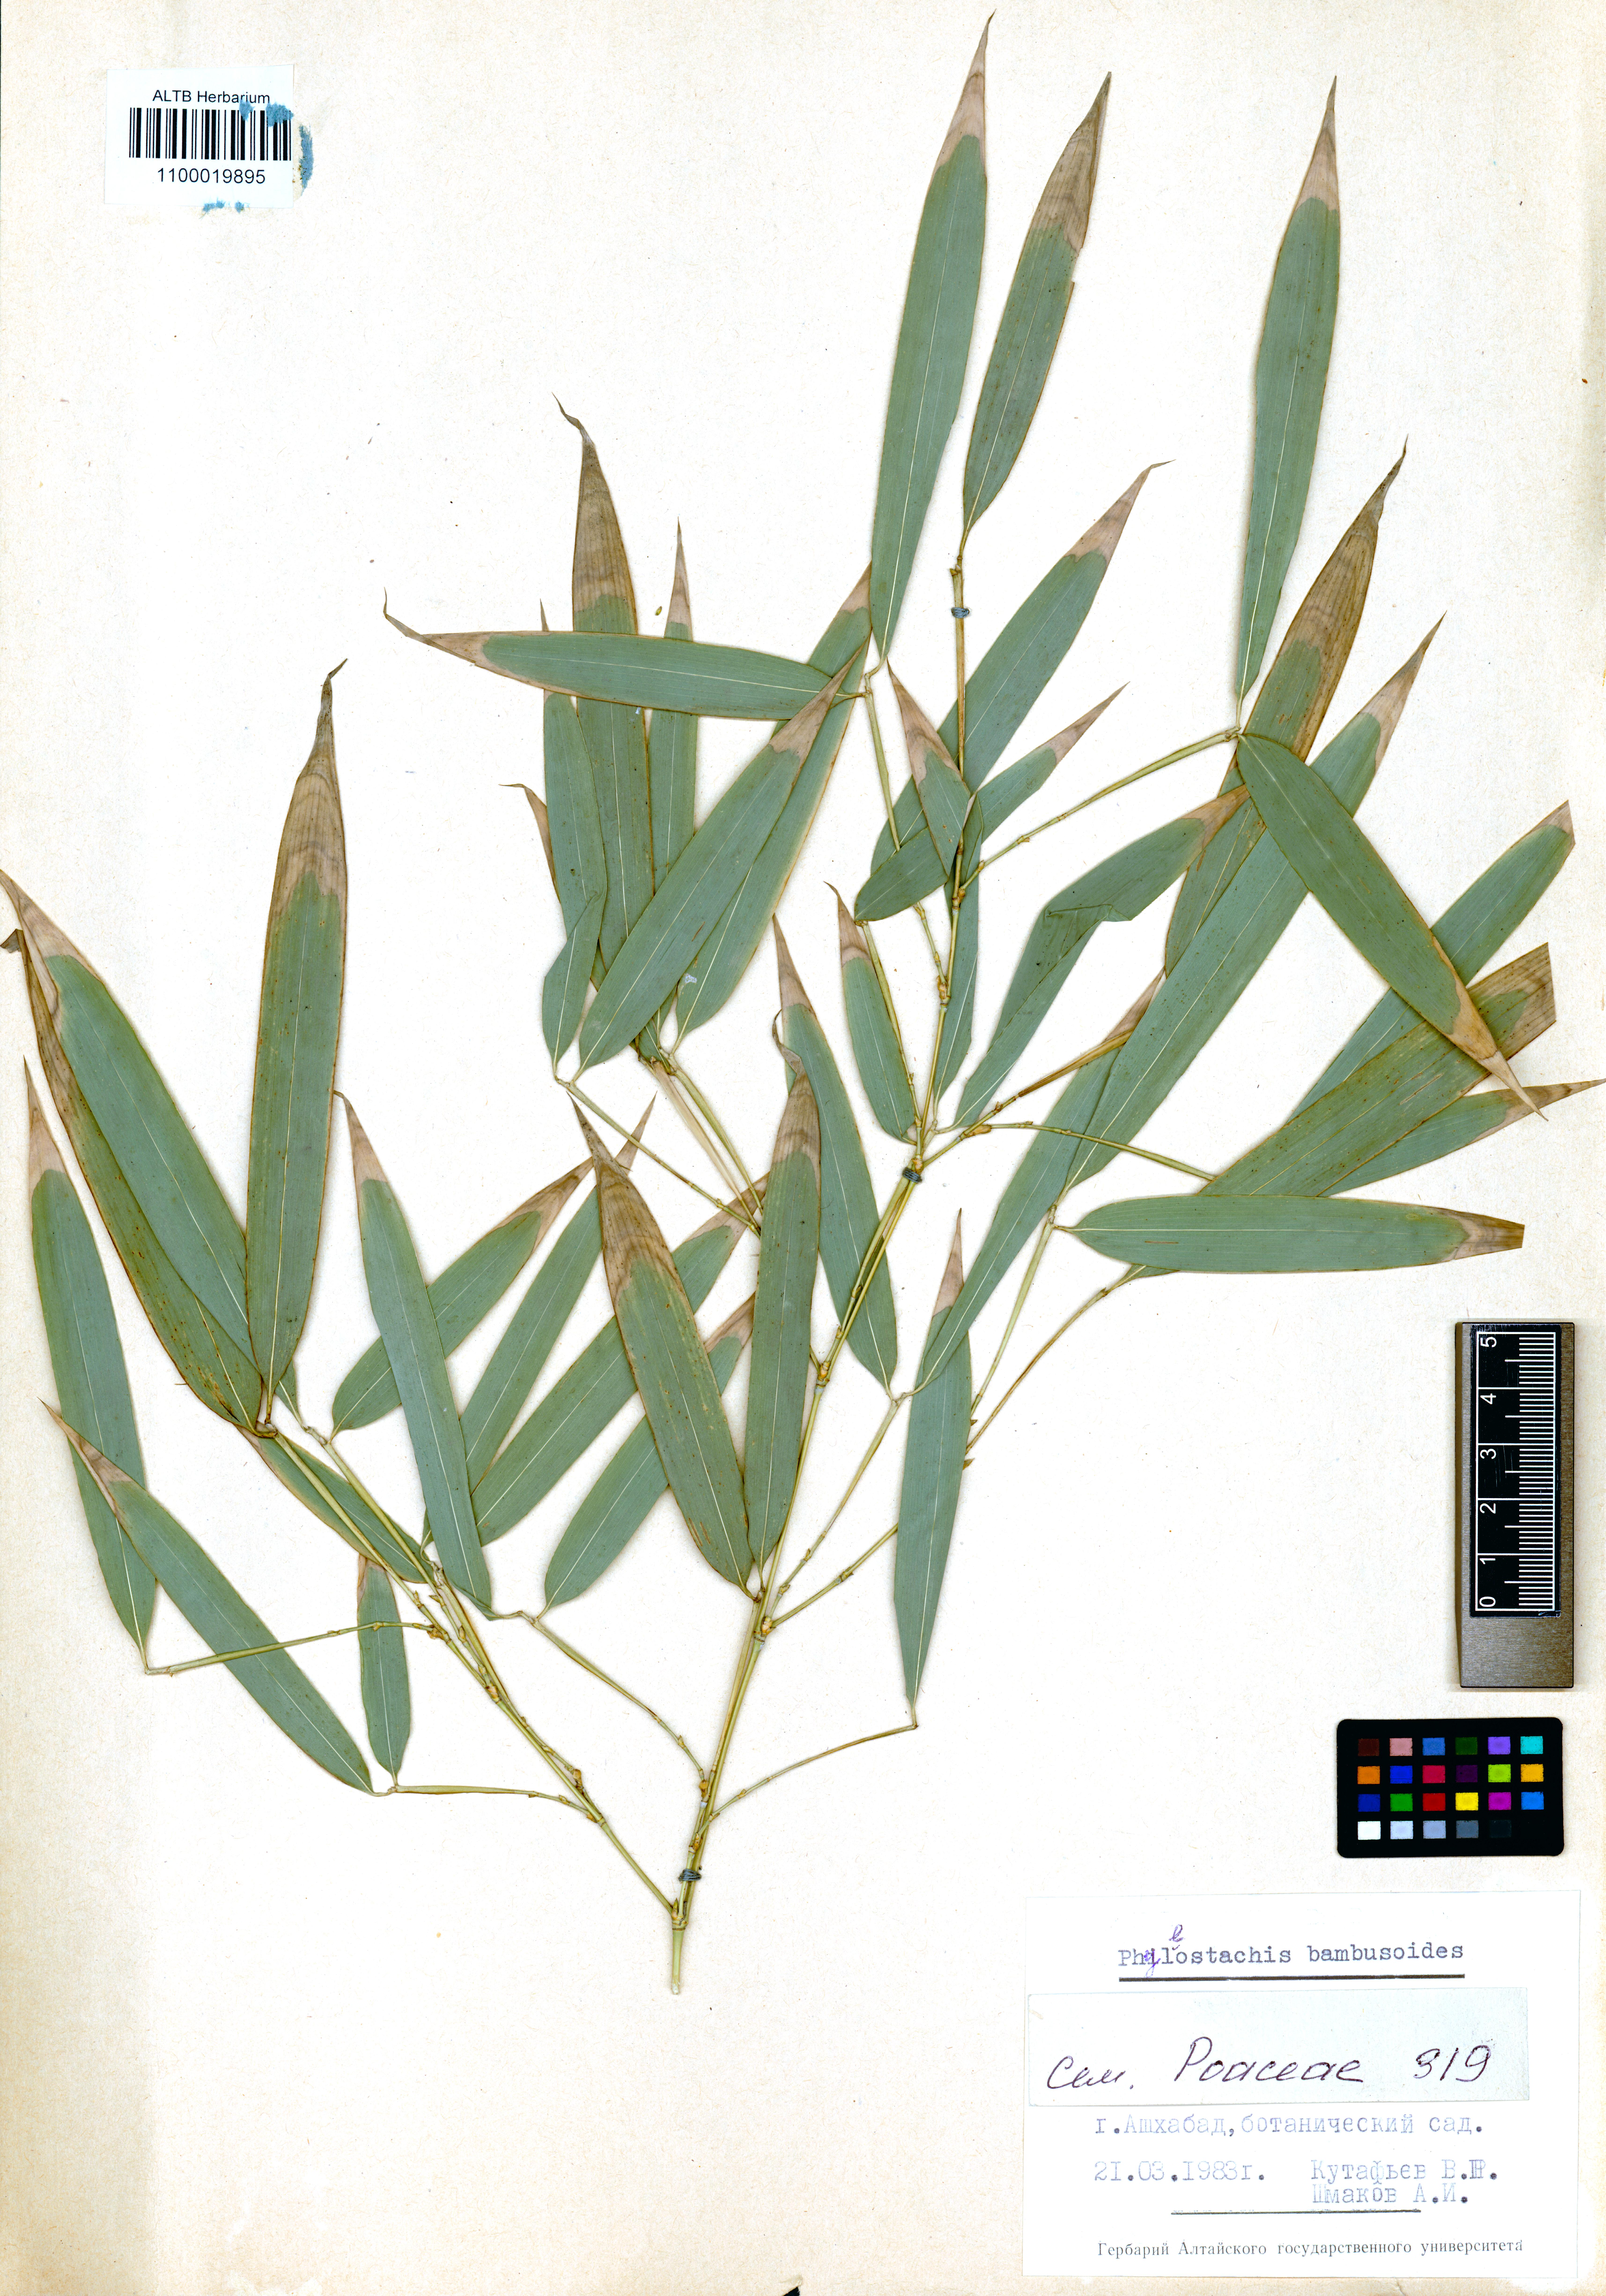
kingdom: Plantae
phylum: Tracheophyta
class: Liliopsida
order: Poales
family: Poaceae
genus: Phyllostachys
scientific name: Phyllostachys reticulata
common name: Bamboo
